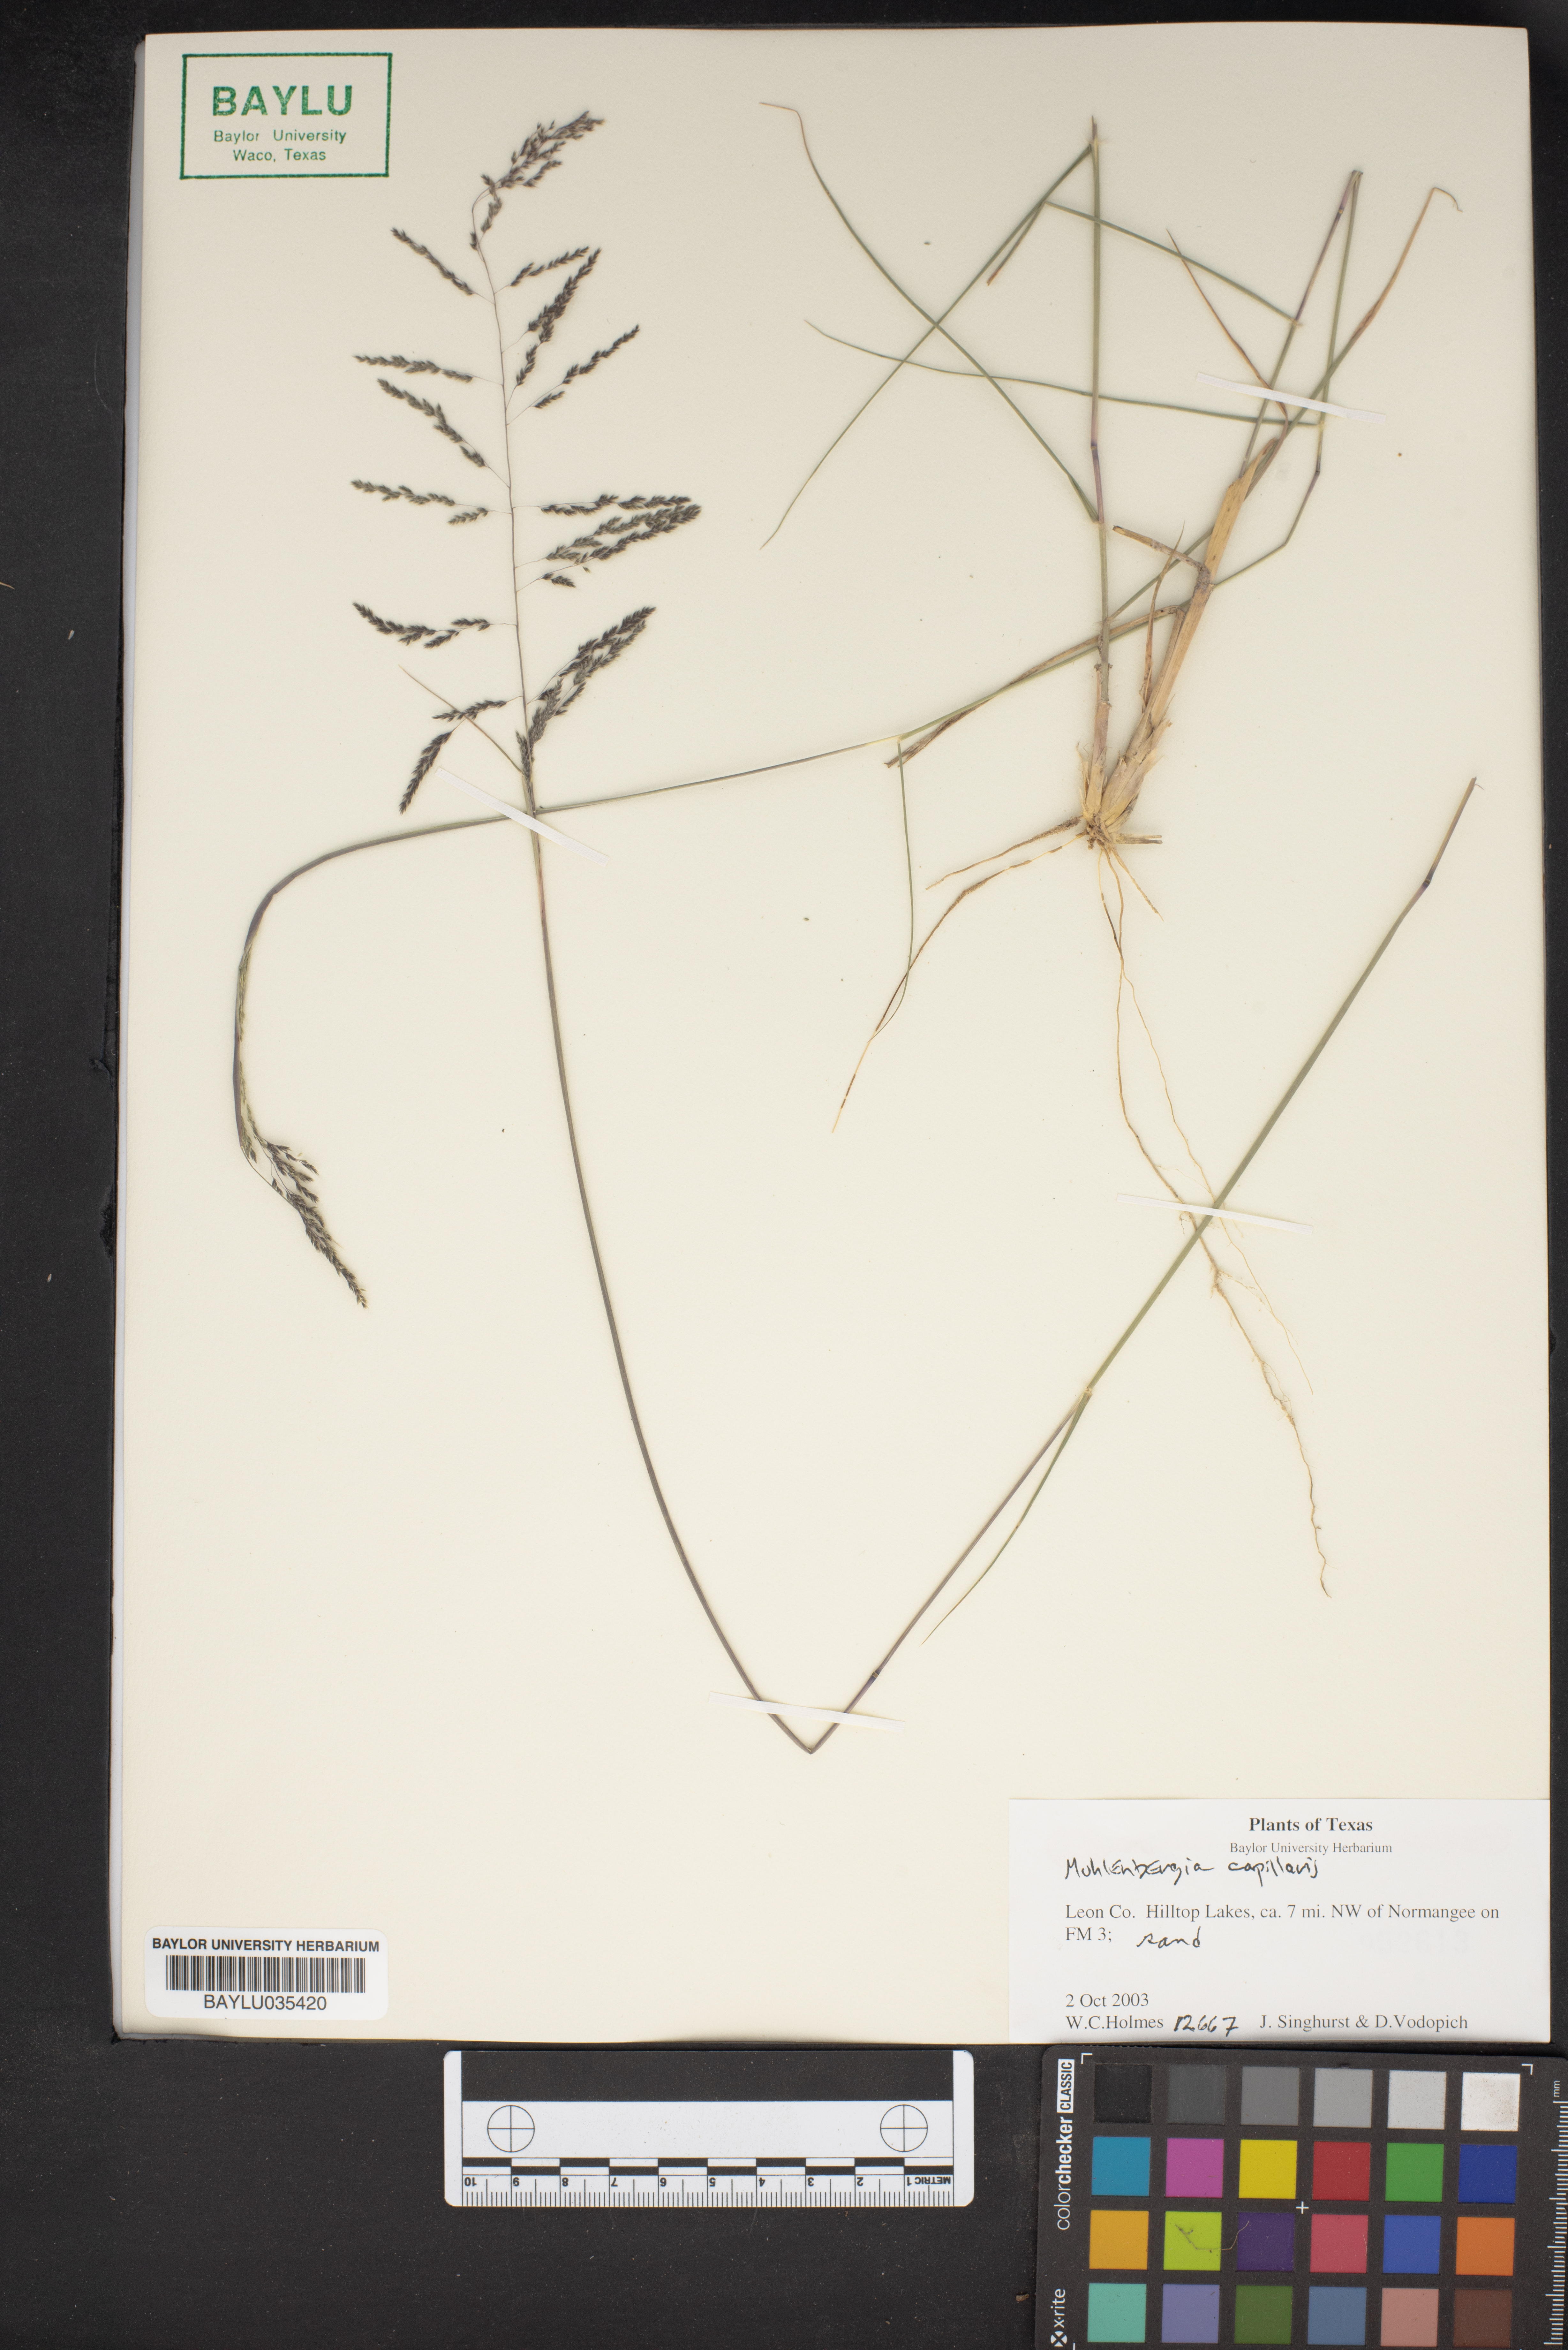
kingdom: Plantae
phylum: Tracheophyta
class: Liliopsida
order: Poales
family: Poaceae
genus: Muhlenbergia
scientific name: Muhlenbergia capillaris
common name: Purple grass
